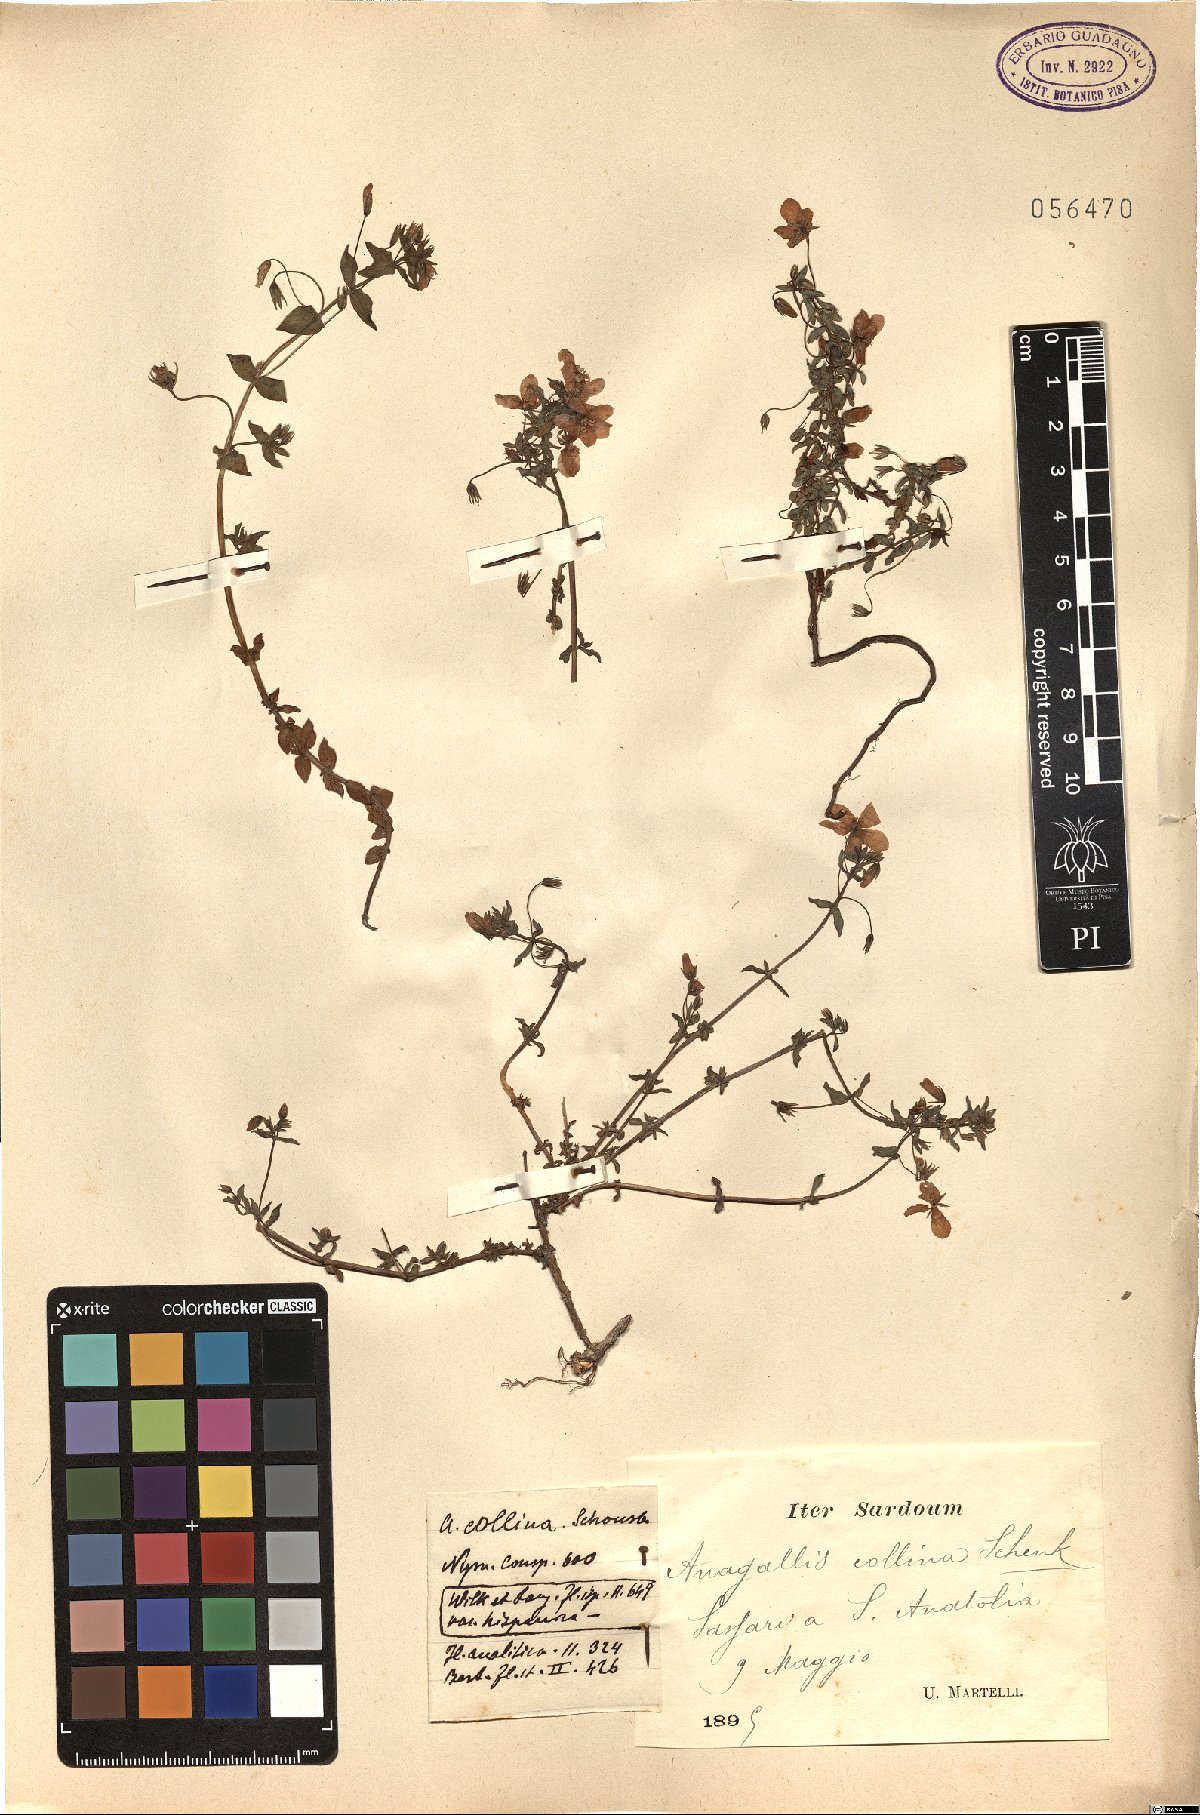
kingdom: Plantae
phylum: Tracheophyta
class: Magnoliopsida
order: Ericales
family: Primulaceae
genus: Lysimachia
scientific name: Lysimachia collina
